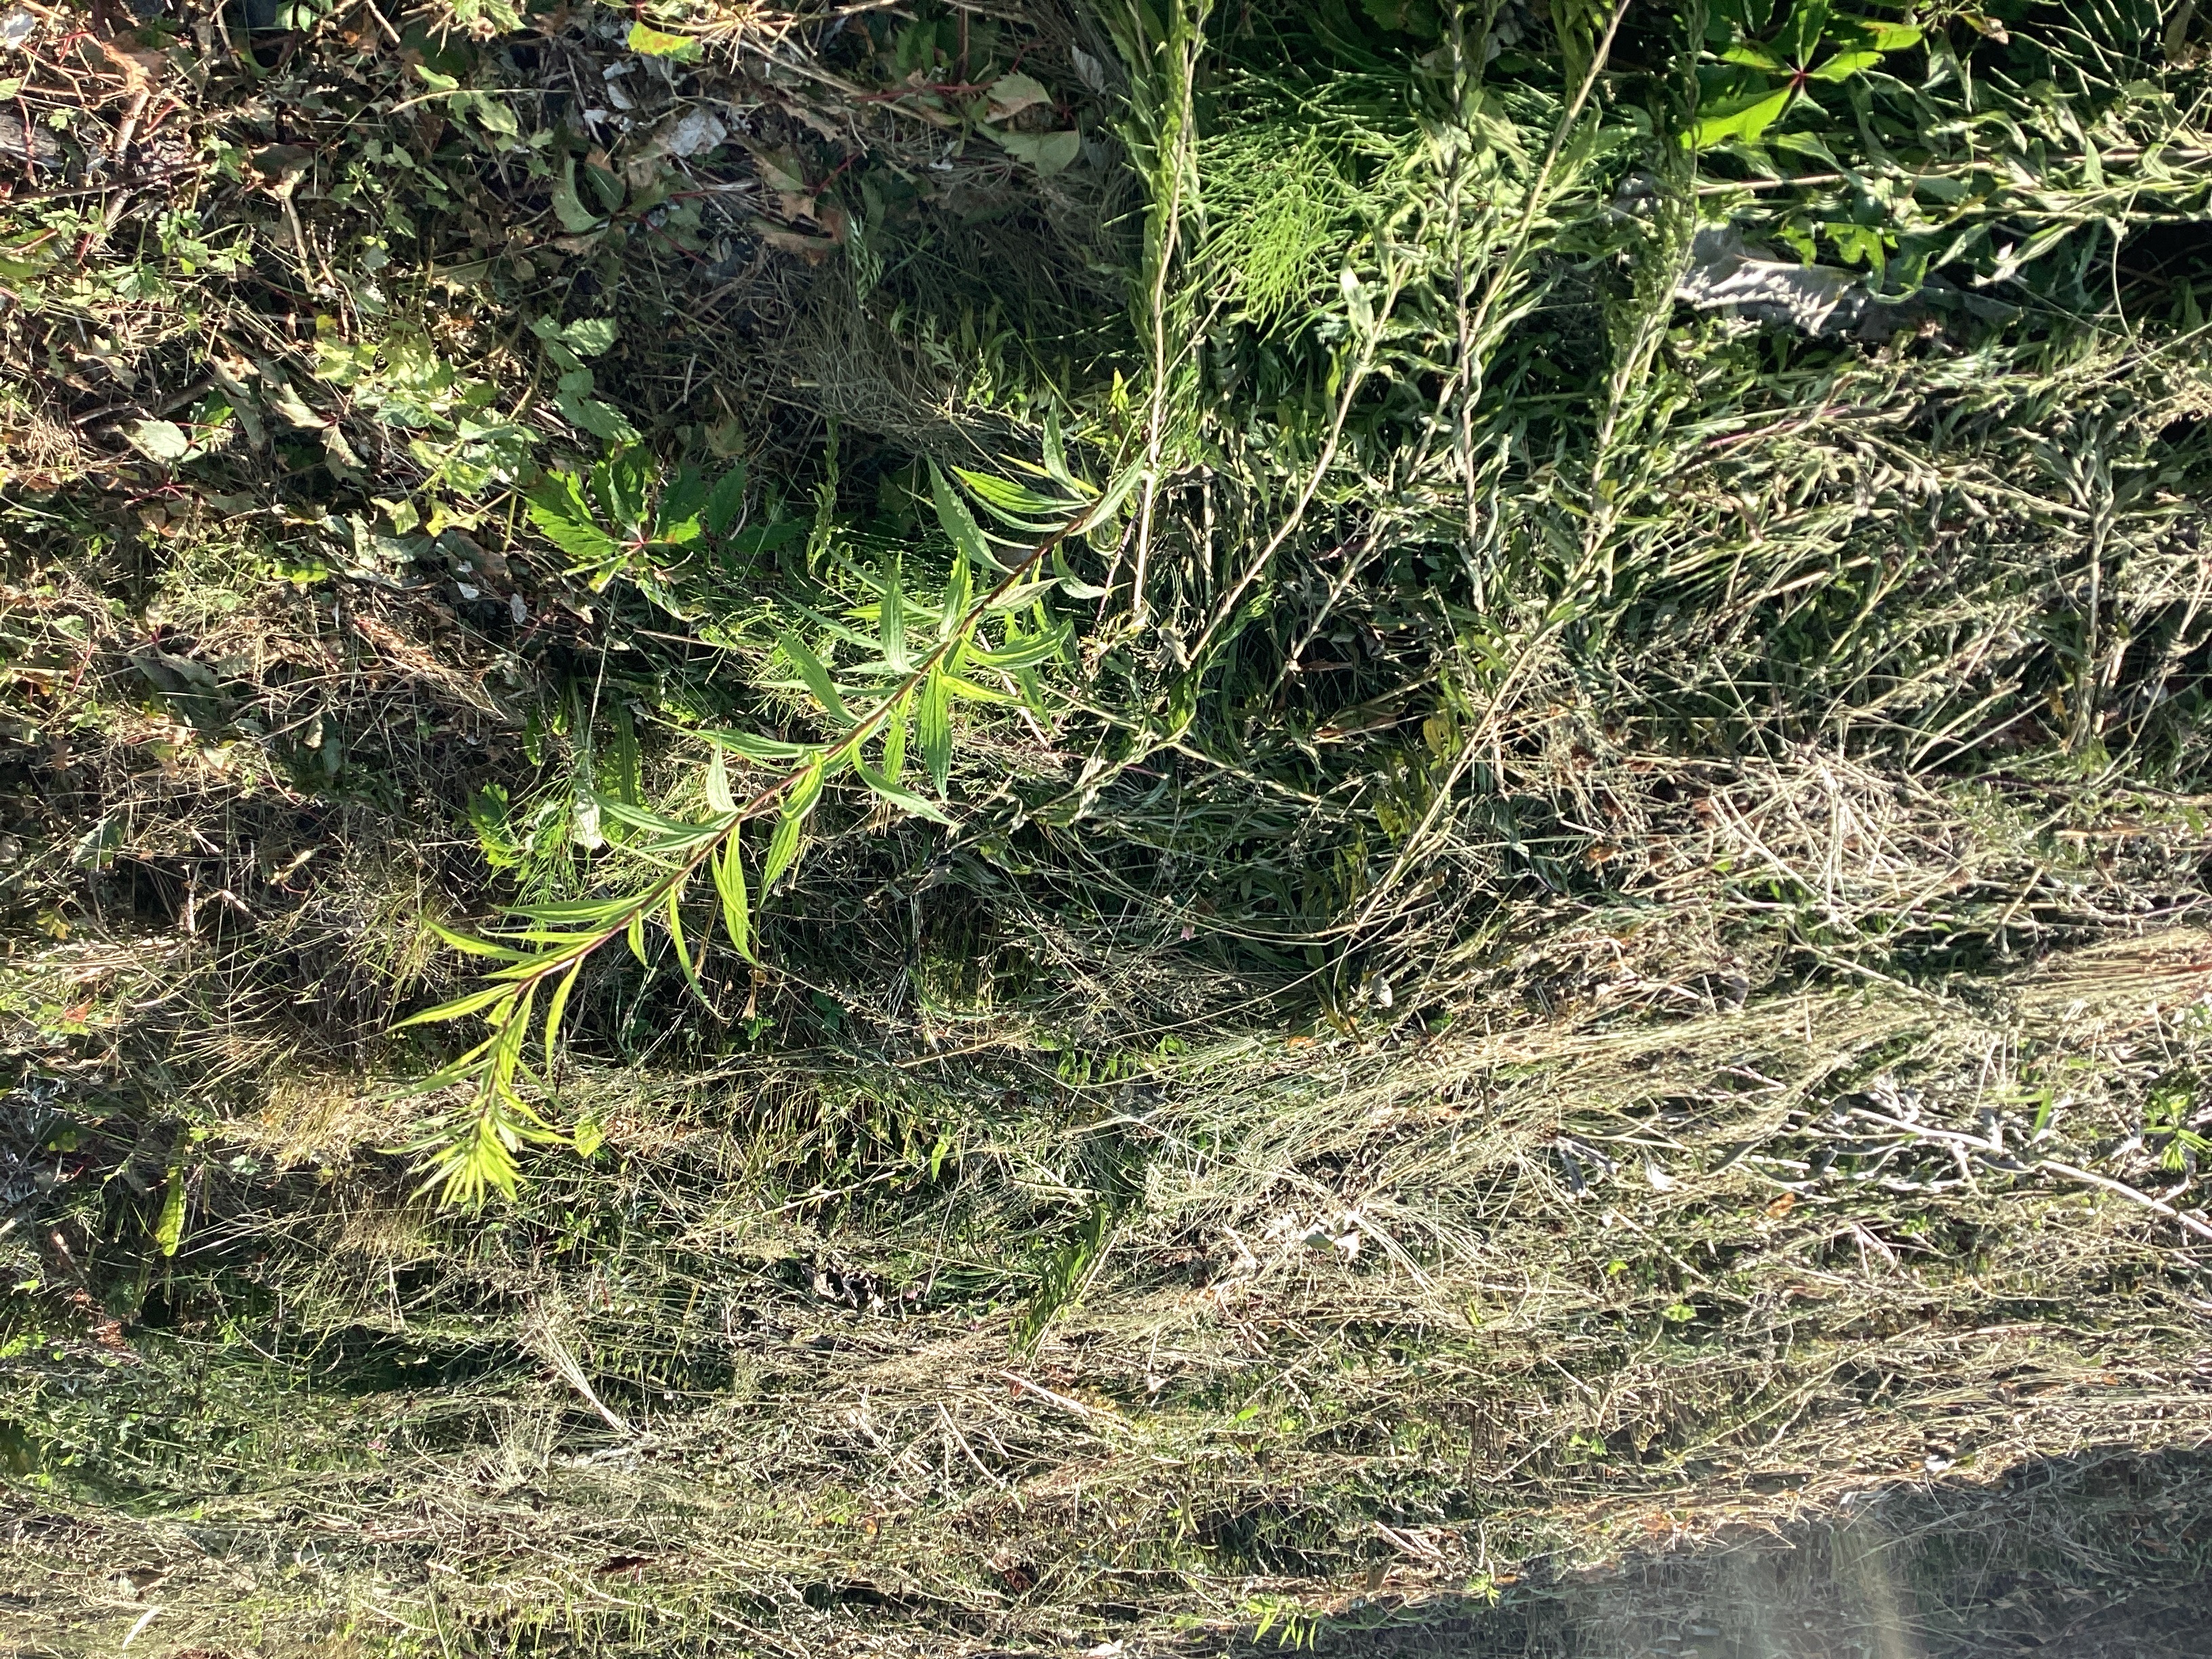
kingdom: Plantae
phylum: Tracheophyta
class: Magnoliopsida
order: Asterales
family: Asteraceae
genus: Solidago
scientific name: Solidago canadensis
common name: kanadagullris
